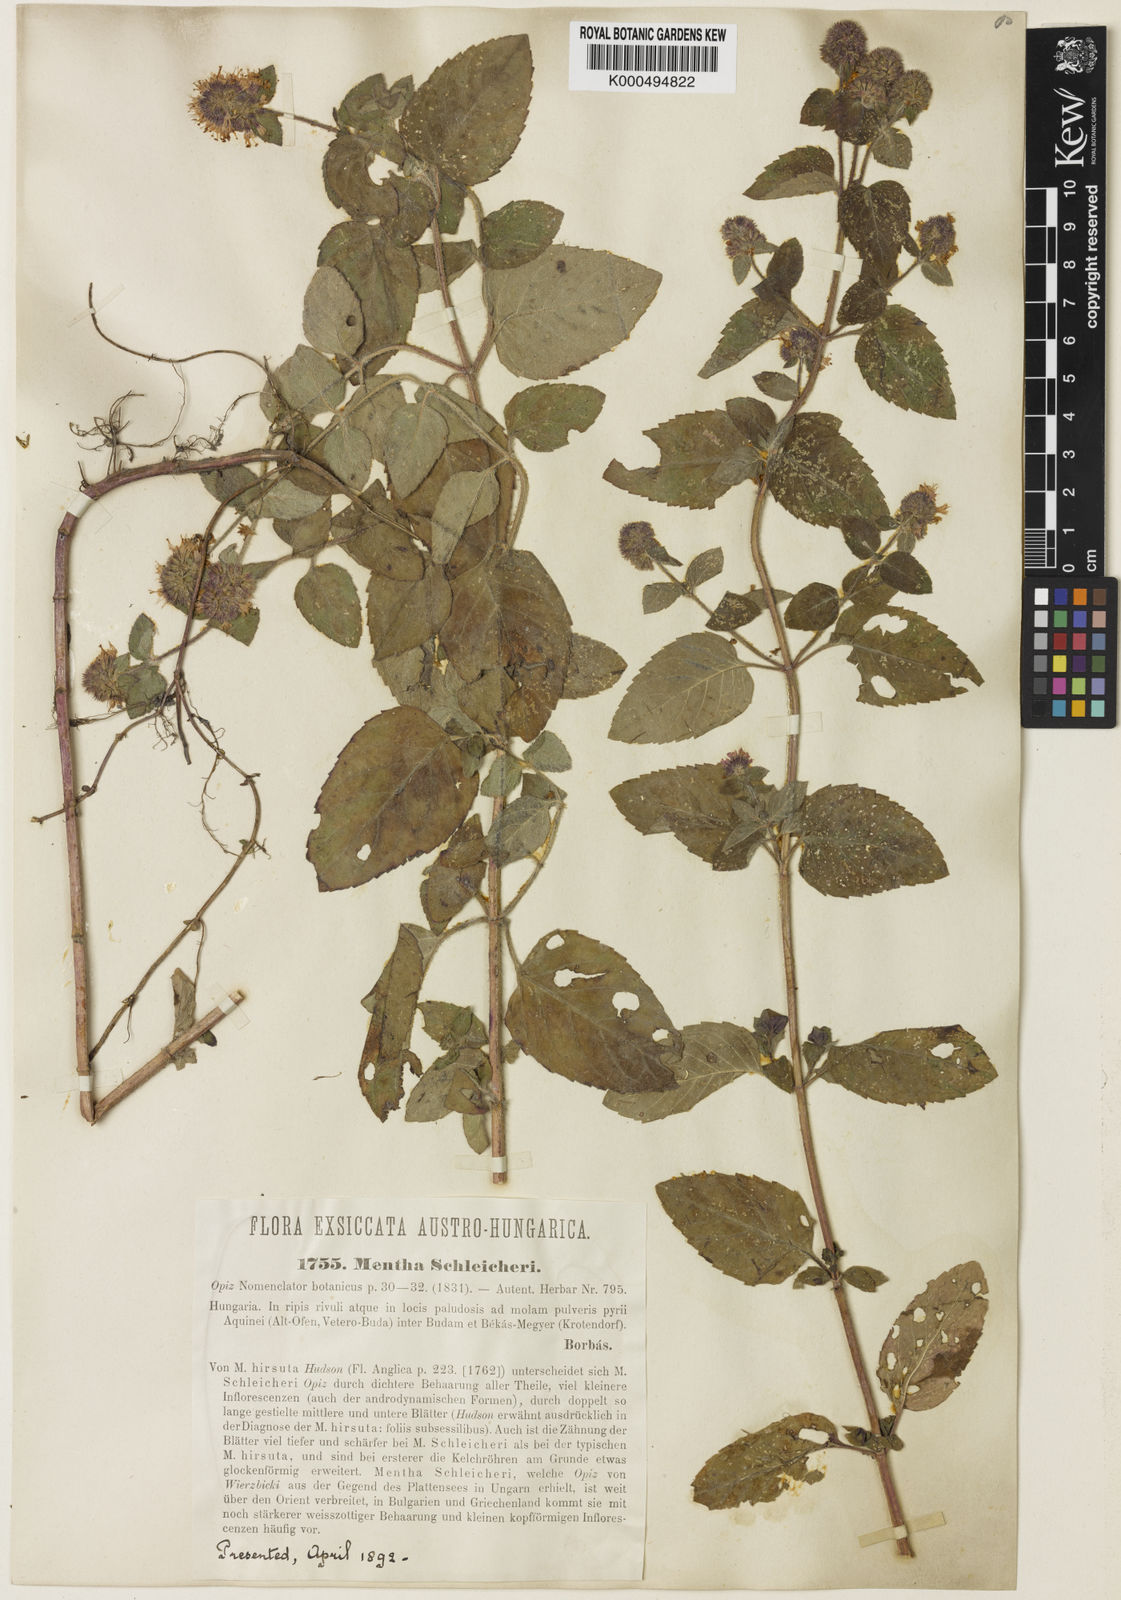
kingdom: Plantae
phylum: Tracheophyta
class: Magnoliopsida
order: Lamiales
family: Lamiaceae
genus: Mentha
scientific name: Mentha aquatica
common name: Water mint
